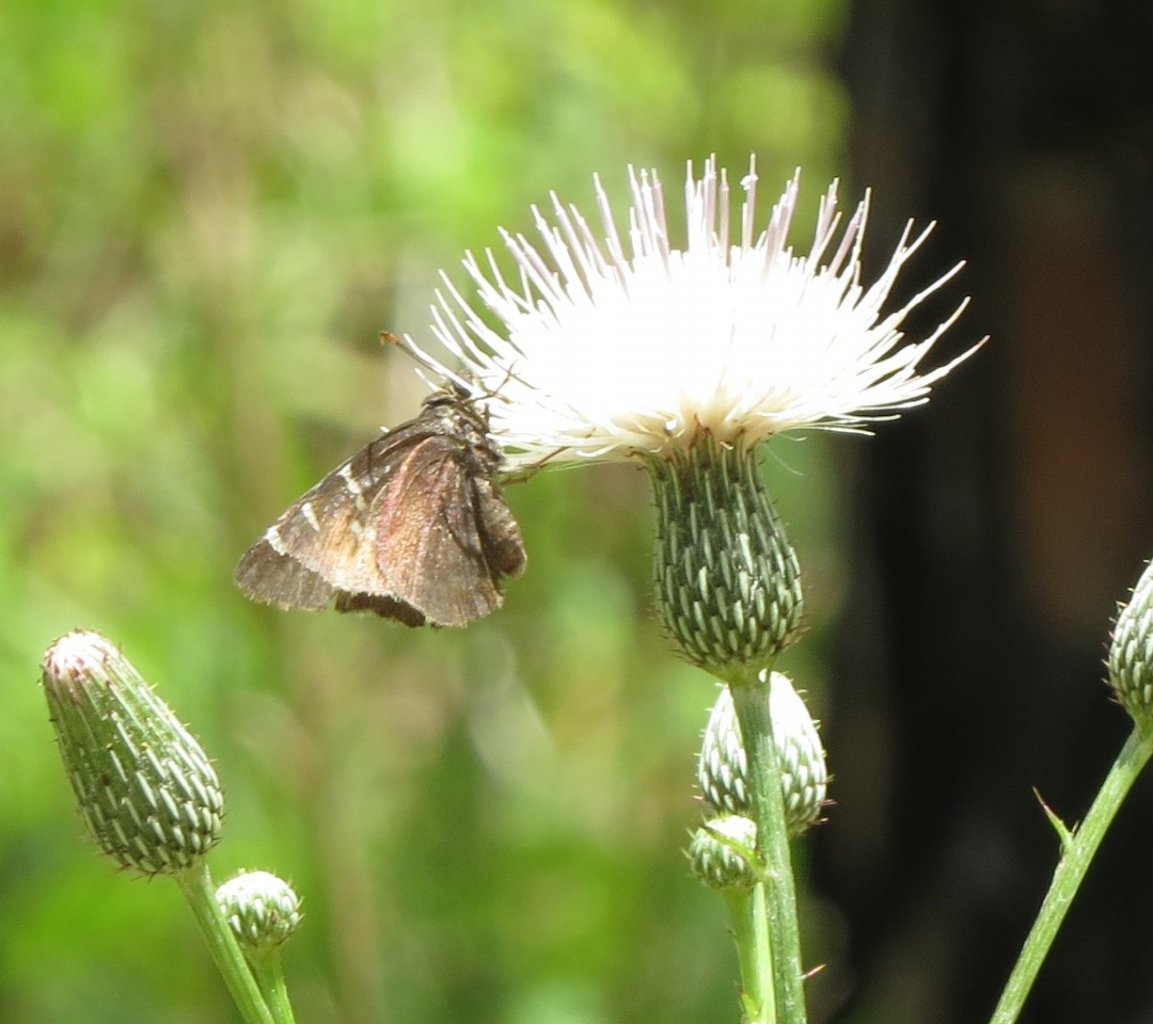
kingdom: Animalia
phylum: Arthropoda
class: Insecta
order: Lepidoptera
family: Hesperiidae
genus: Autochton
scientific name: Autochton
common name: Southern Cloudywing
